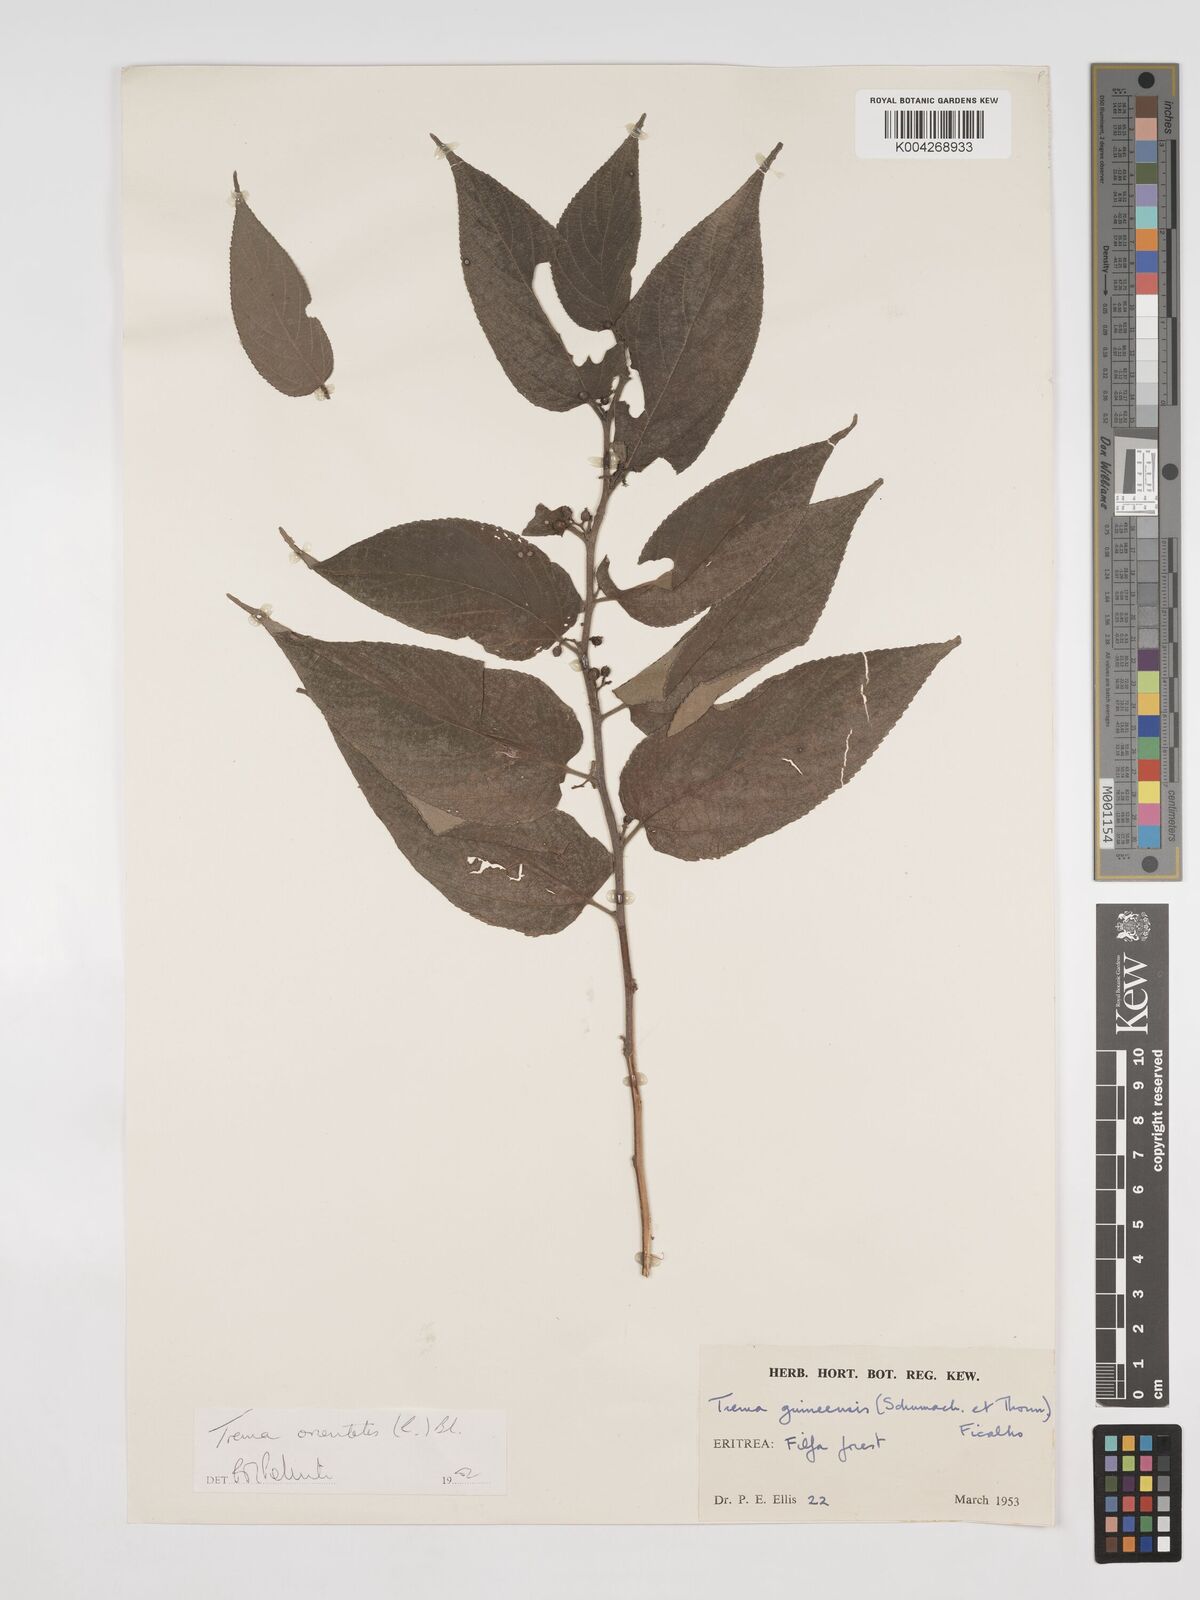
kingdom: Plantae
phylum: Tracheophyta
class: Magnoliopsida
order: Rosales
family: Cannabaceae
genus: Trema
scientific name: Trema orientale
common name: Indian charcoal tree
